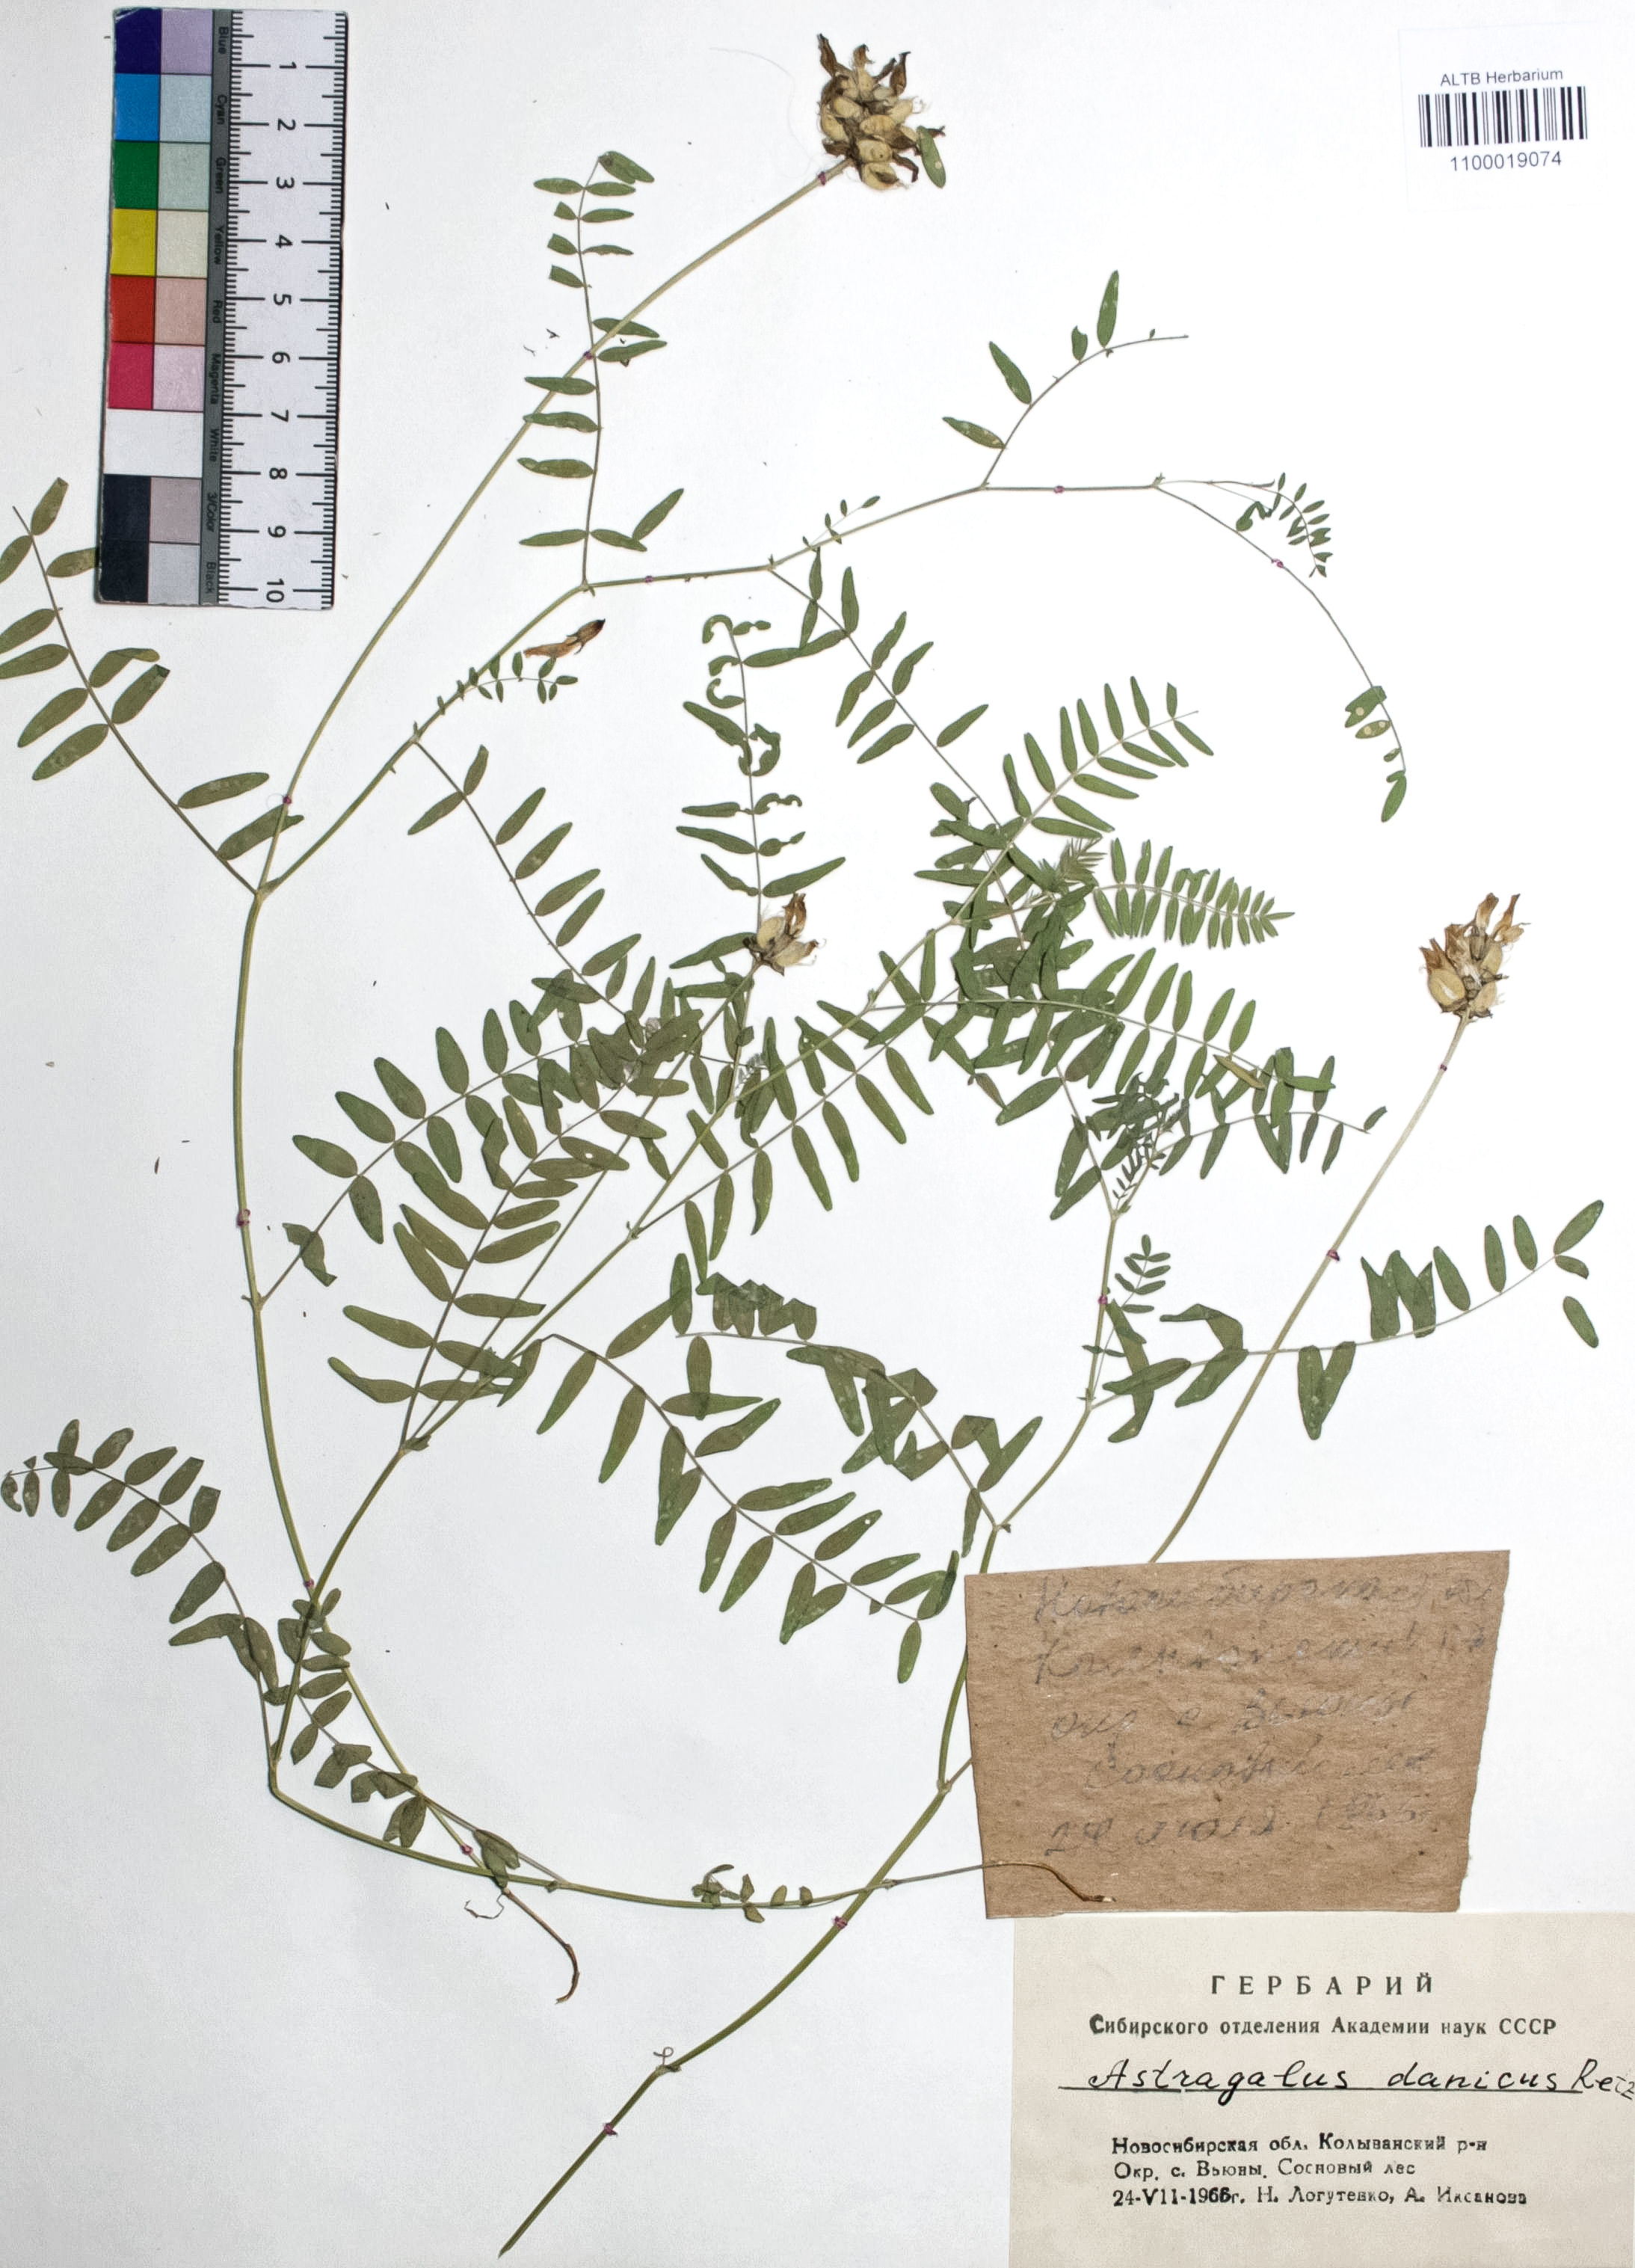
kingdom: Plantae
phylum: Tracheophyta
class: Magnoliopsida
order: Fabales
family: Fabaceae
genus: Astragalus
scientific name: Astragalus danicus
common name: Purple milk-vetch
